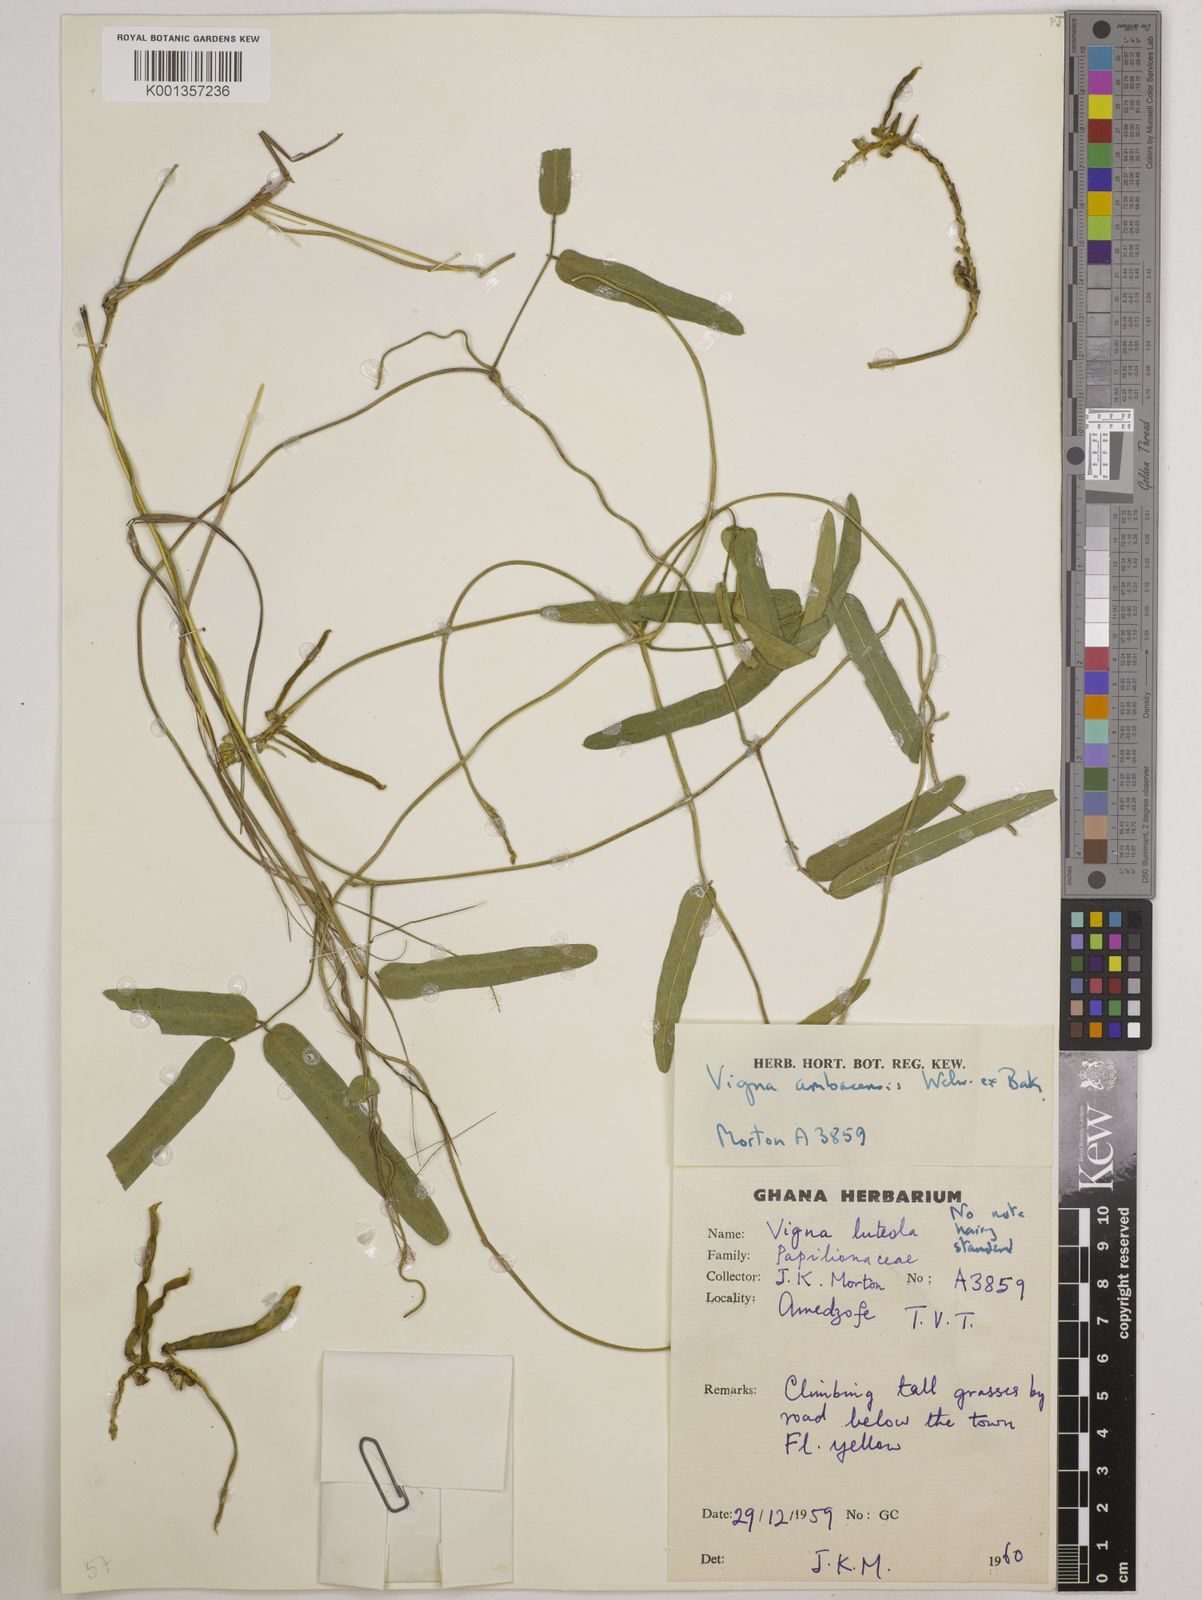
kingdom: Plantae
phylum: Tracheophyta
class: Magnoliopsida
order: Fabales
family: Fabaceae
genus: Vigna
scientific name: Vigna ambacensis
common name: Tsarkiyan zomo
